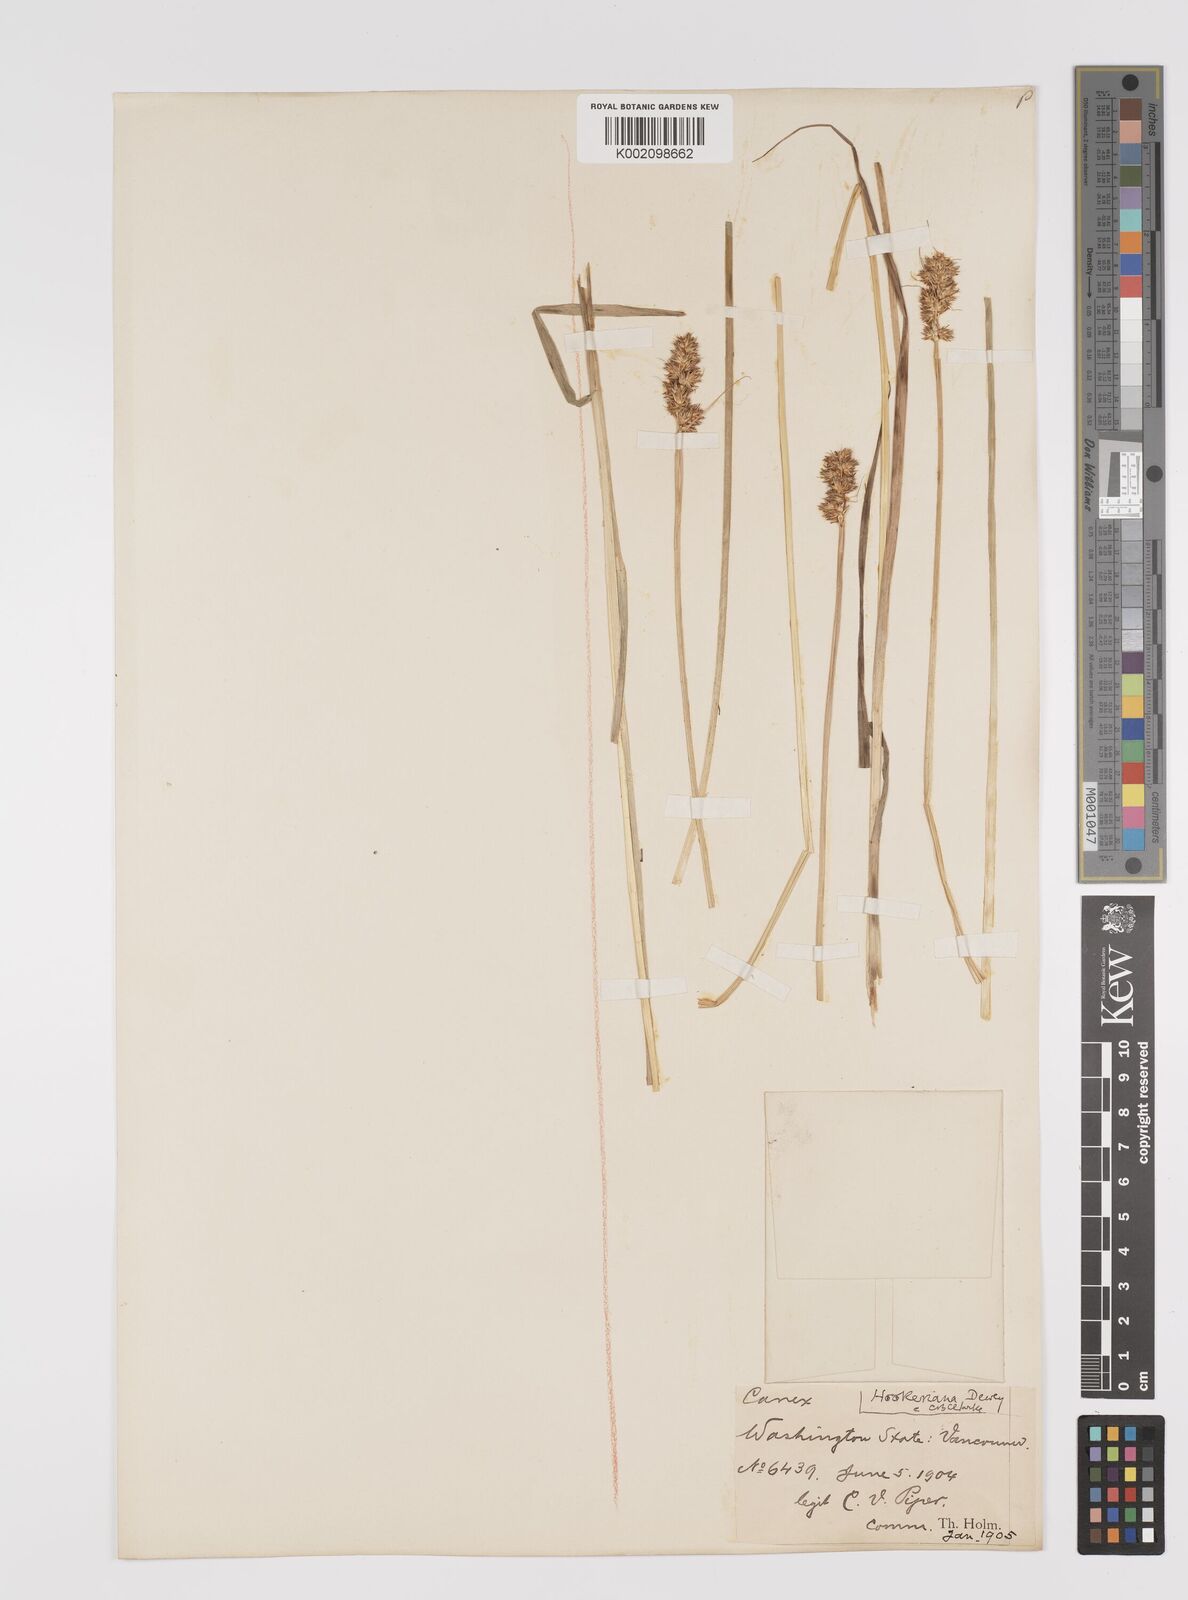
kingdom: Plantae
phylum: Tracheophyta
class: Liliopsida
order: Poales
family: Cyperaceae
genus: Carex
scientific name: Carex hookeriana
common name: Hooker's sedge
